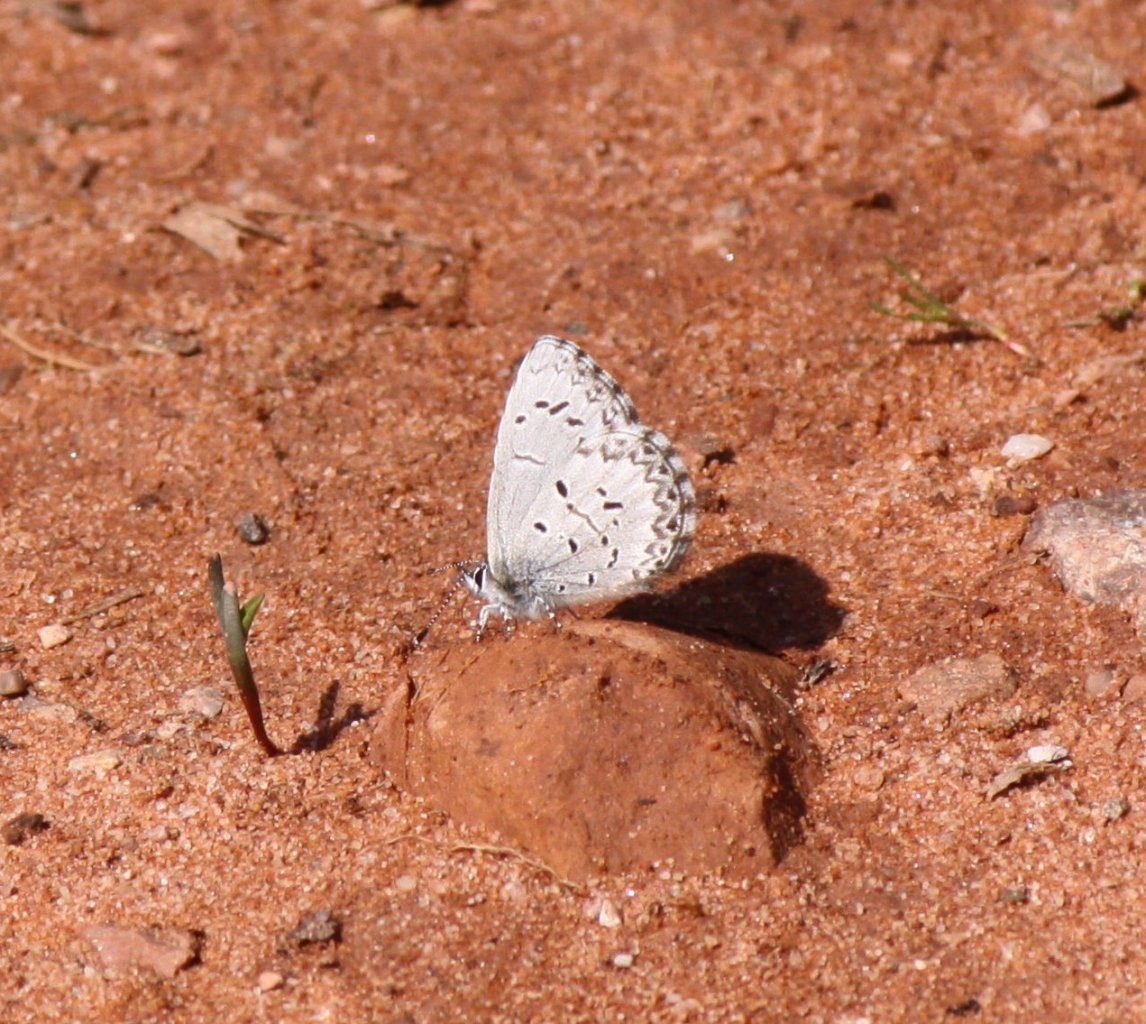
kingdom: Animalia
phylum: Arthropoda
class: Insecta
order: Lepidoptera
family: Lycaenidae
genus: Celastrina
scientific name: Celastrina lucia
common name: Northern Spring Azure
